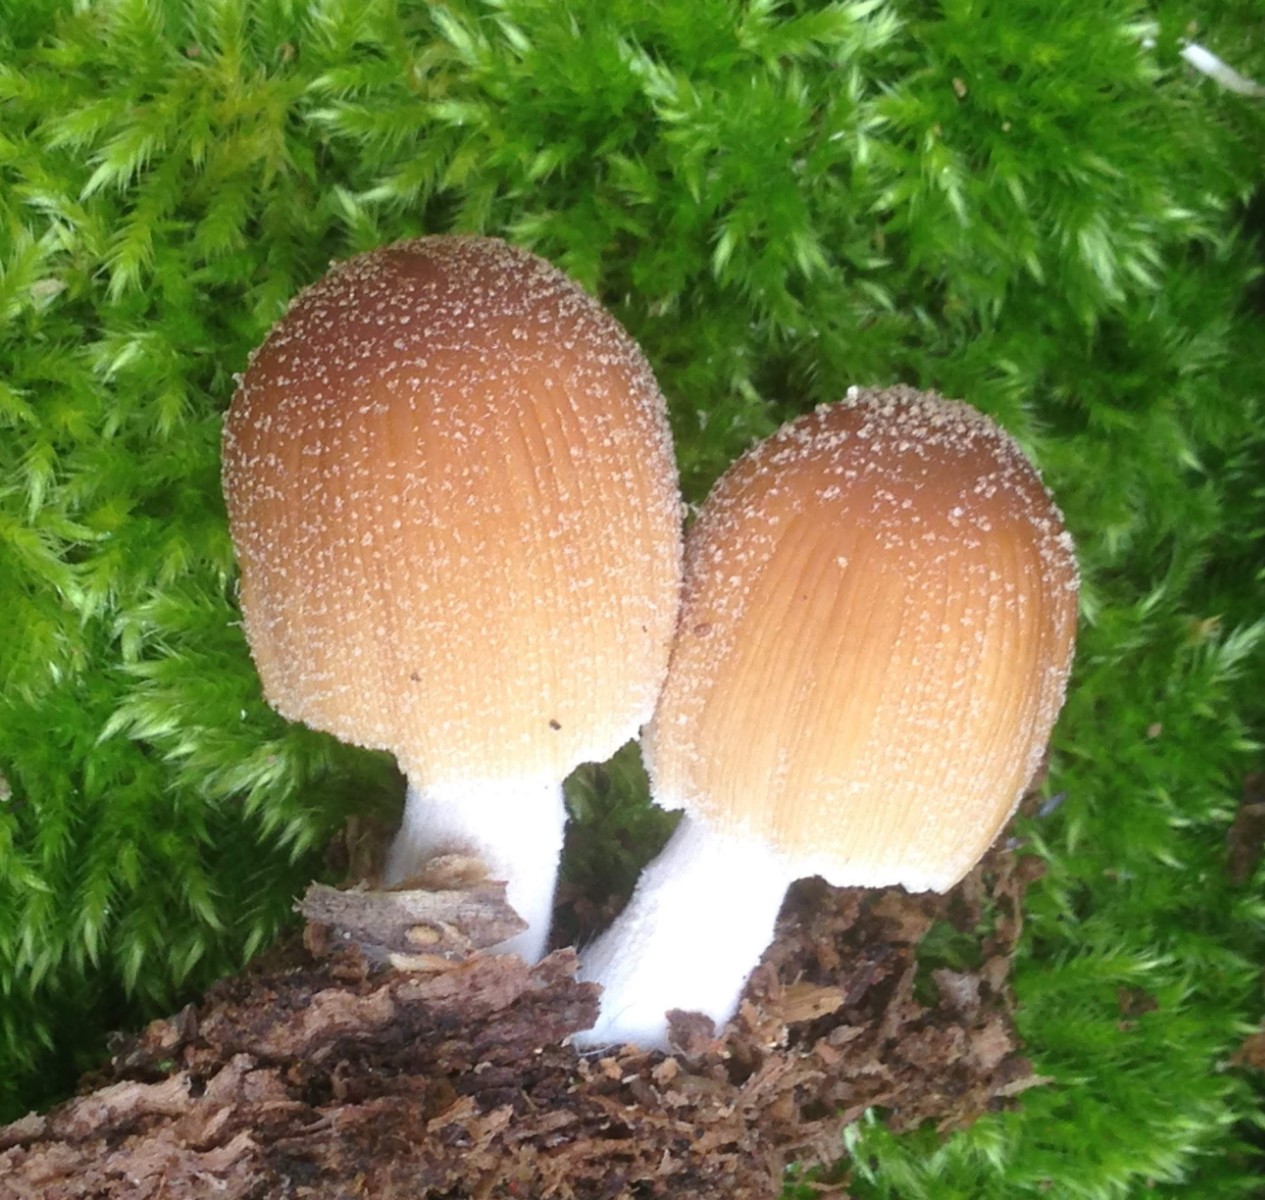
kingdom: Fungi
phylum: Basidiomycota
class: Agaricomycetes
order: Agaricales
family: Psathyrellaceae
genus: Coprinellus
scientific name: Coprinellus micaceus
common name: glimmer-blækhat
